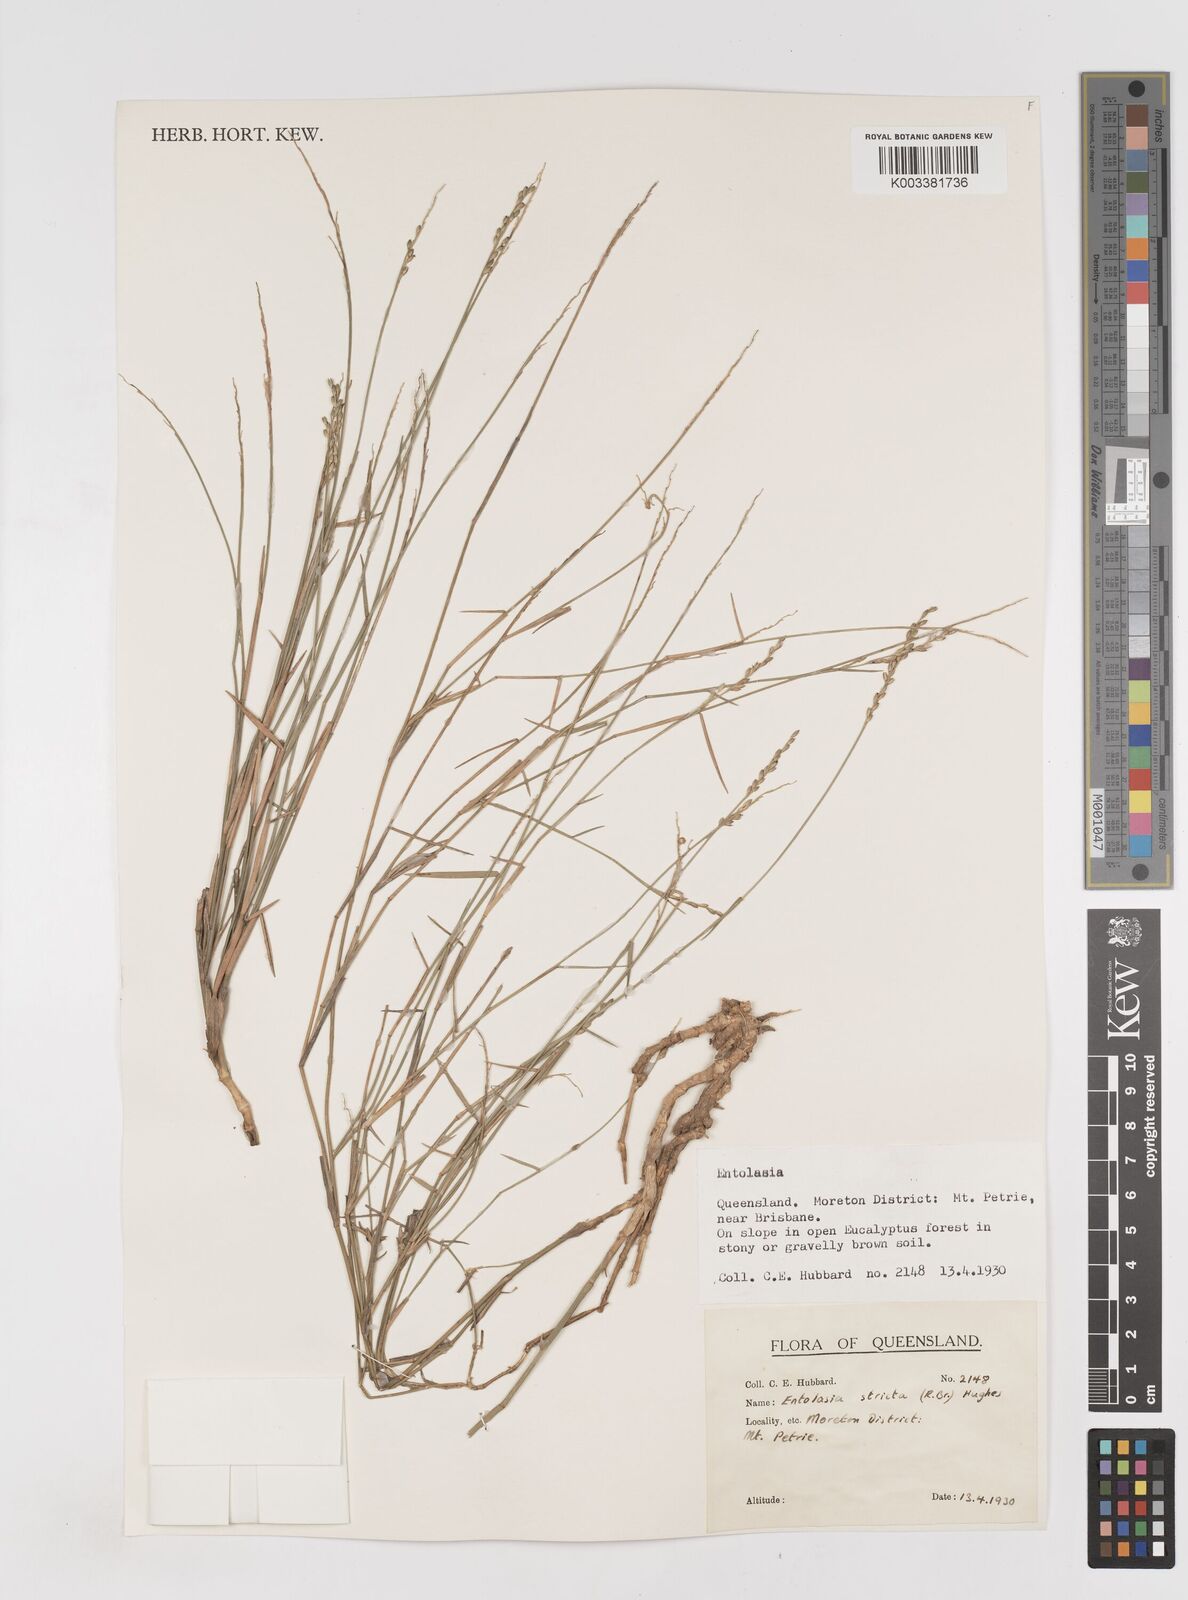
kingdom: Plantae
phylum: Tracheophyta
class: Liliopsida
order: Poales
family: Poaceae
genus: Entolasia
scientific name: Entolasia stricta
